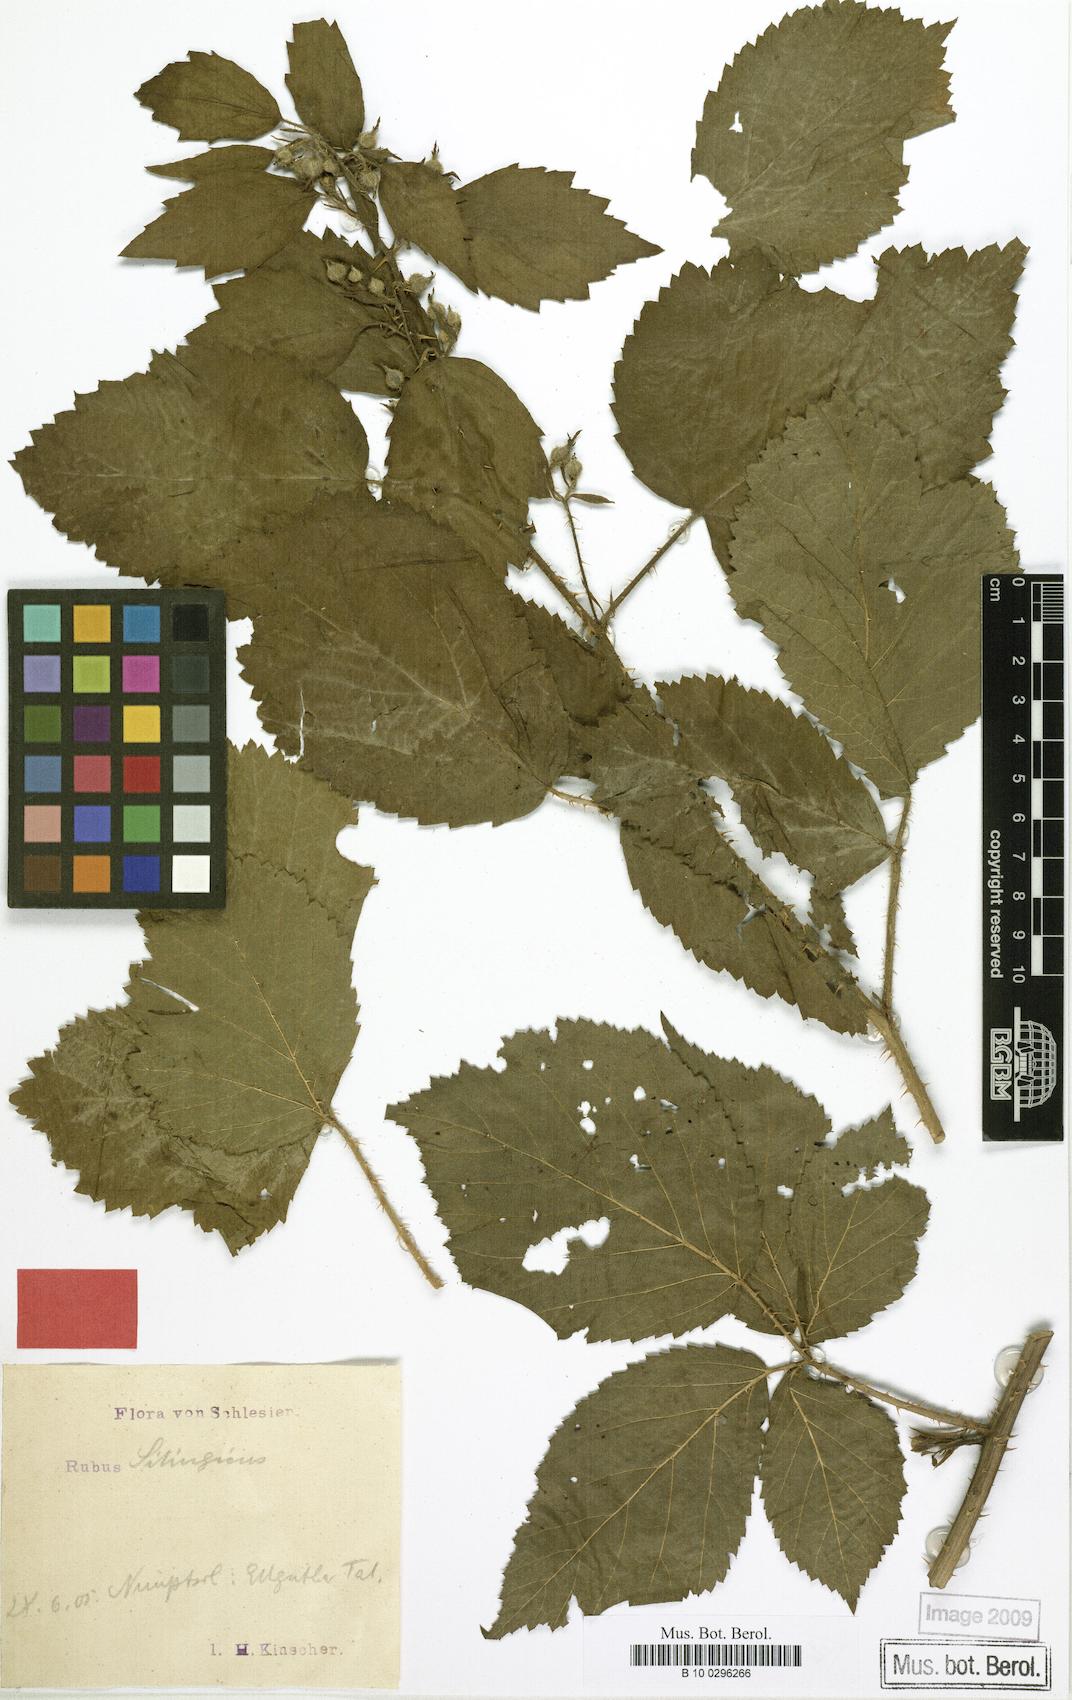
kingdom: Plantae
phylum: Tracheophyta
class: Magnoliopsida
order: Rosales
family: Rosaceae
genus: Rubus
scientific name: Rubus chlorothyrsos
